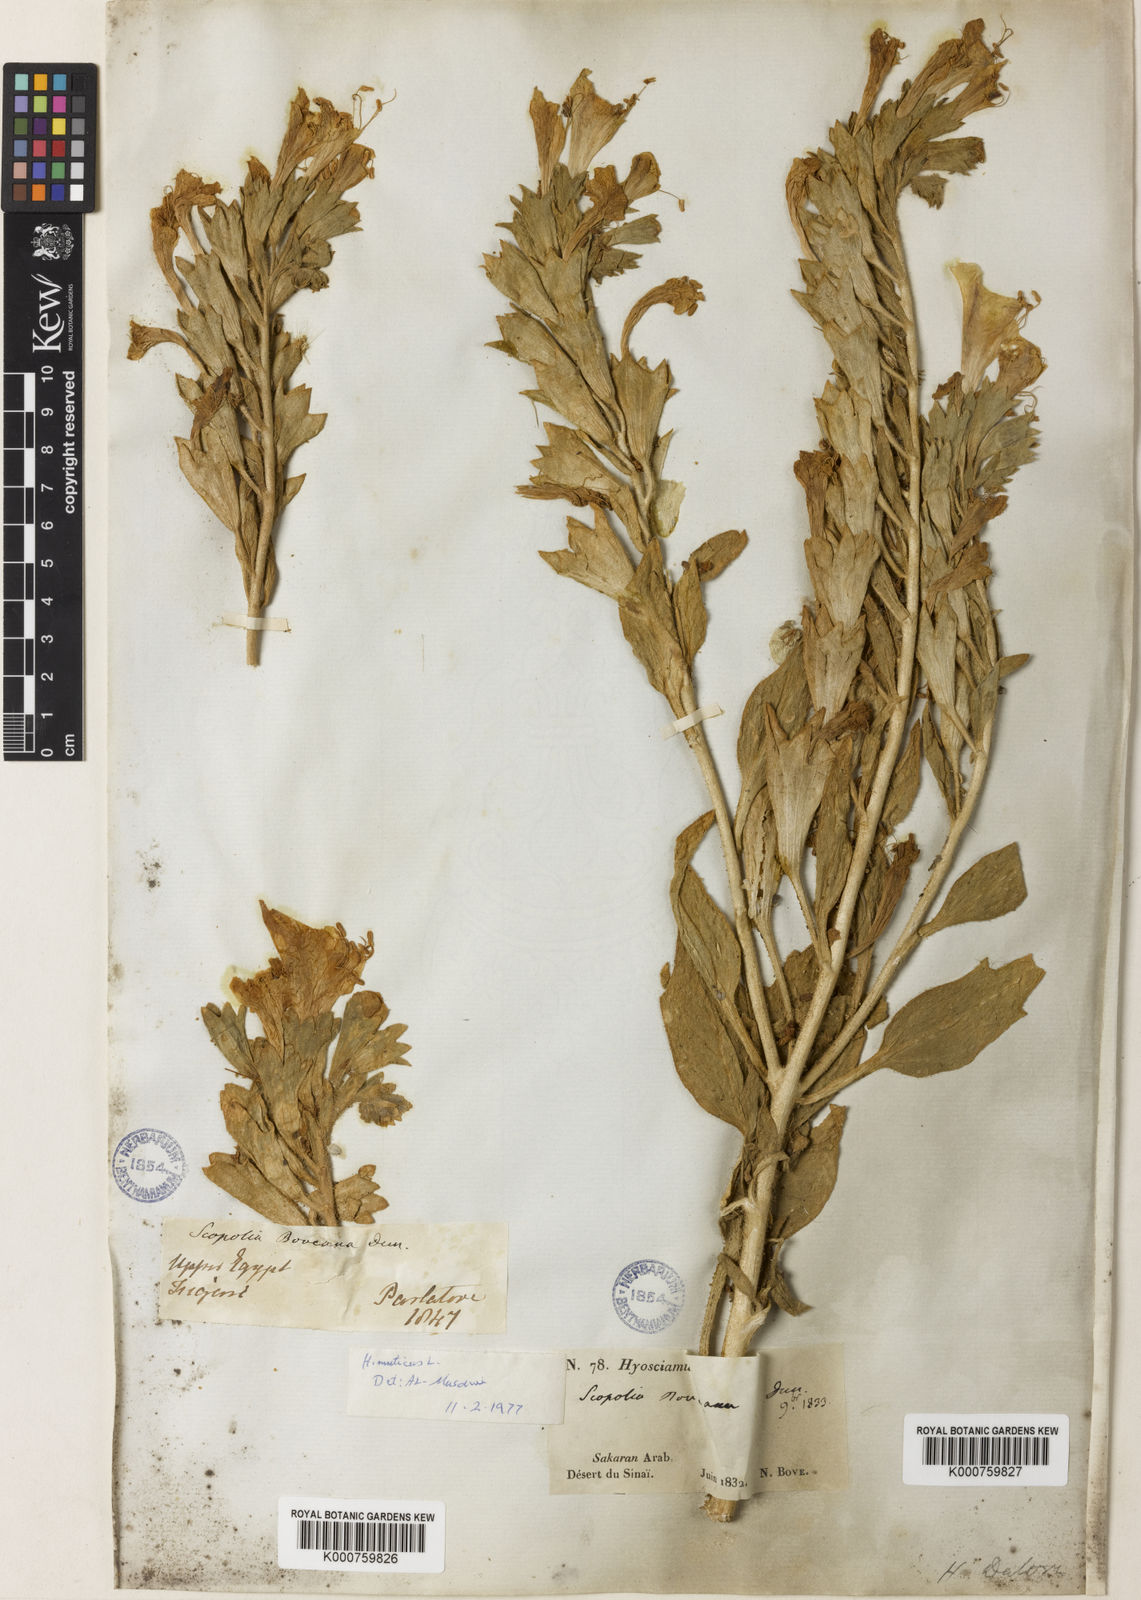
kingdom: Plantae
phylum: Tracheophyta
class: Magnoliopsida
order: Solanales
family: Solanaceae
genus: Hyoscyamus
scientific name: Hyoscyamus boveanus
